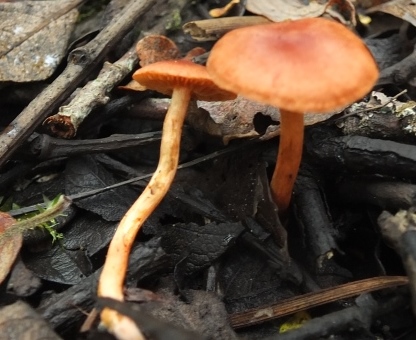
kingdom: Fungi
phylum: Basidiomycota
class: Agaricomycetes
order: Agaricales
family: Cortinariaceae
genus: Cortinarius
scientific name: Cortinarius uliginosus
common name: mose-slørhat
